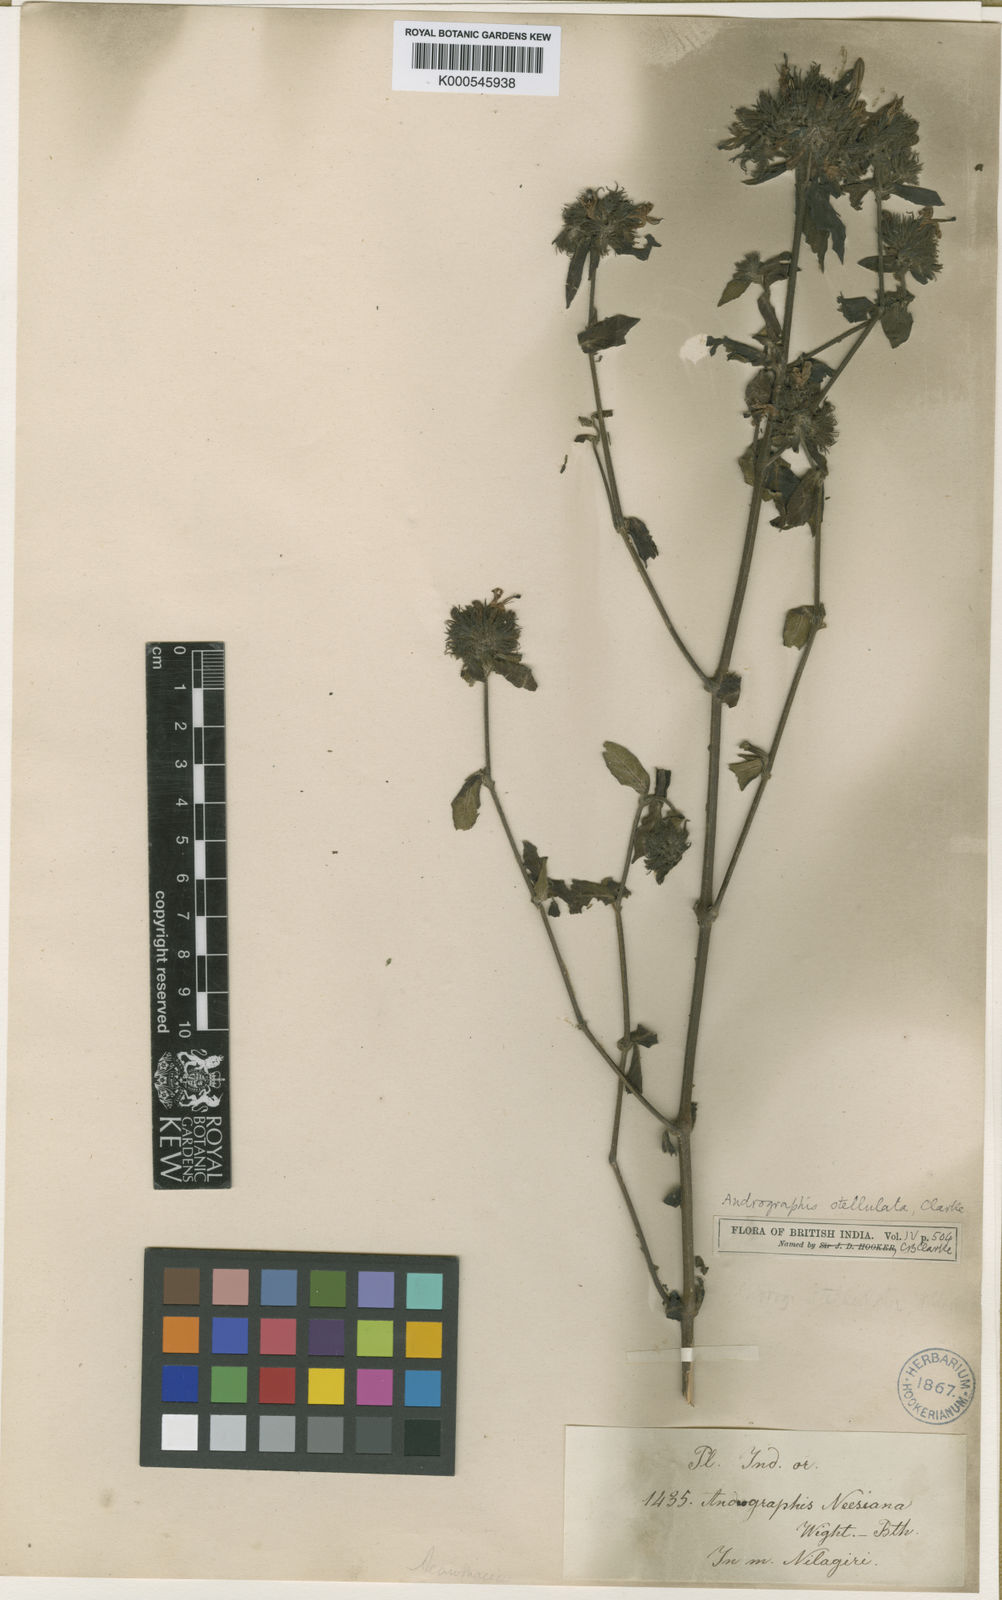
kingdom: Plantae
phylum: Tracheophyta
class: Magnoliopsida
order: Lamiales
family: Acanthaceae
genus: Andrographis
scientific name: Andrographis stellulata
